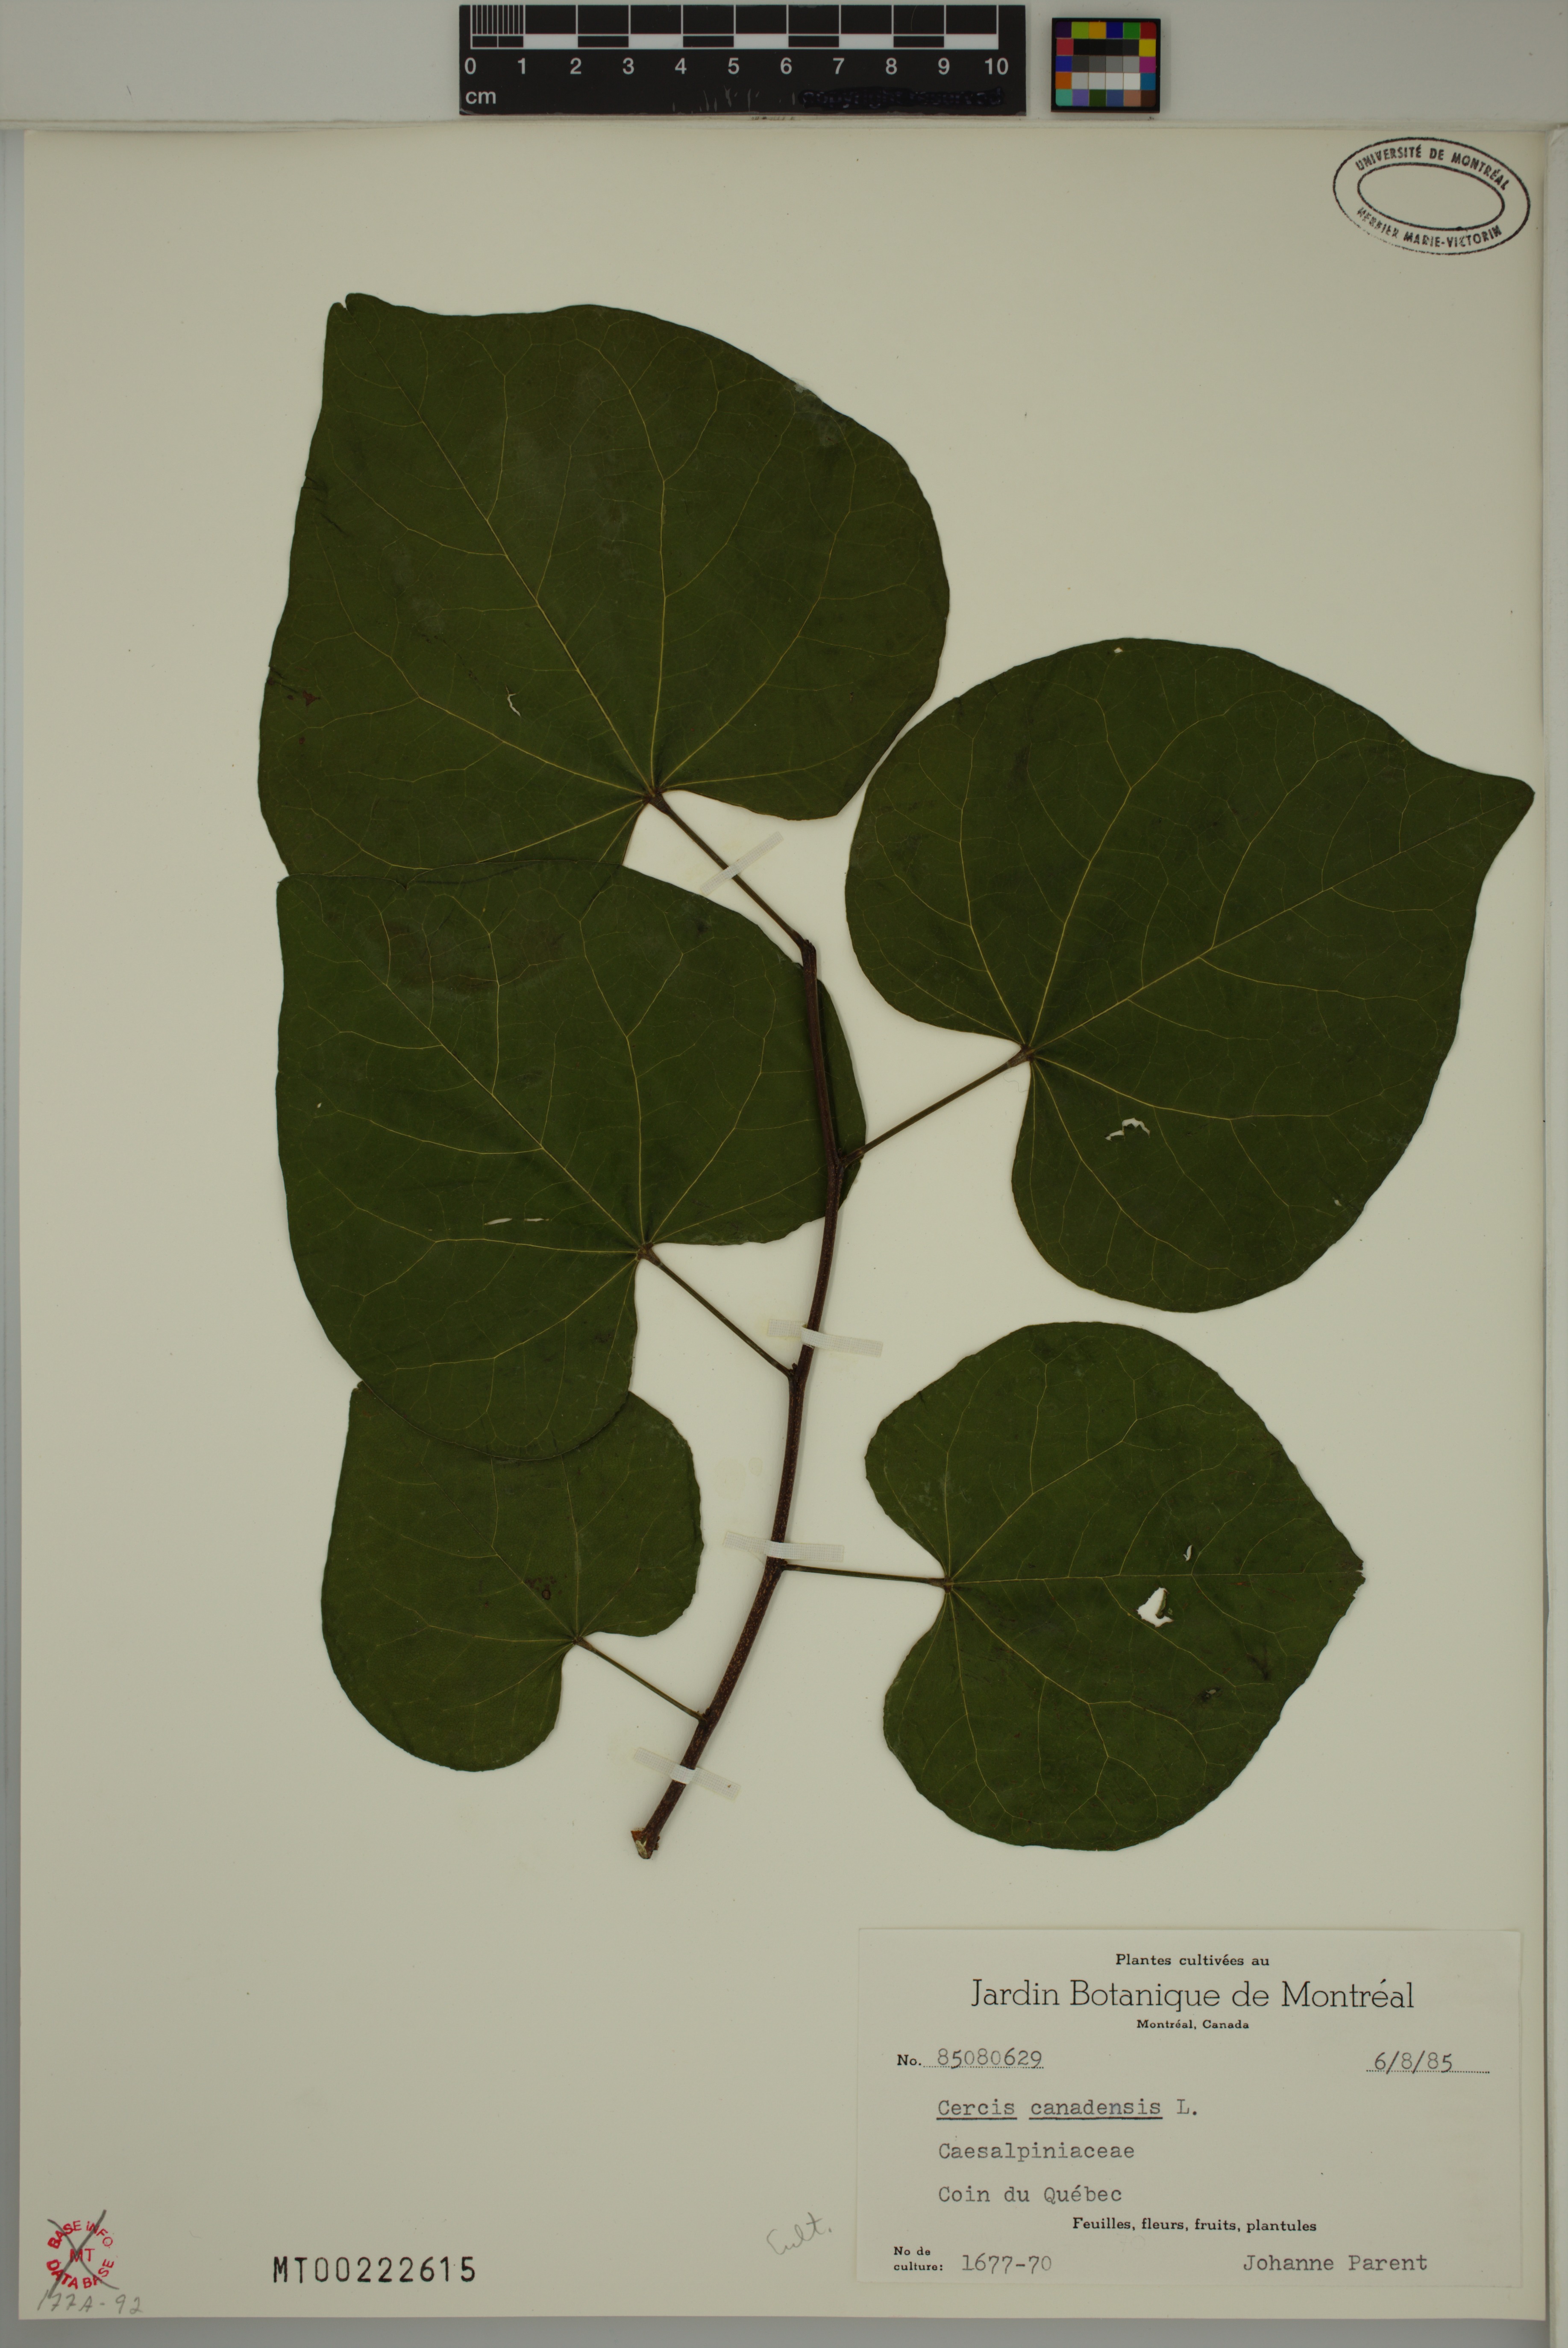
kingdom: Plantae
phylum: Tracheophyta
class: Magnoliopsida
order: Fabales
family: Fabaceae
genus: Cercis
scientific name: Cercis canadensis
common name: Eastern redbud
